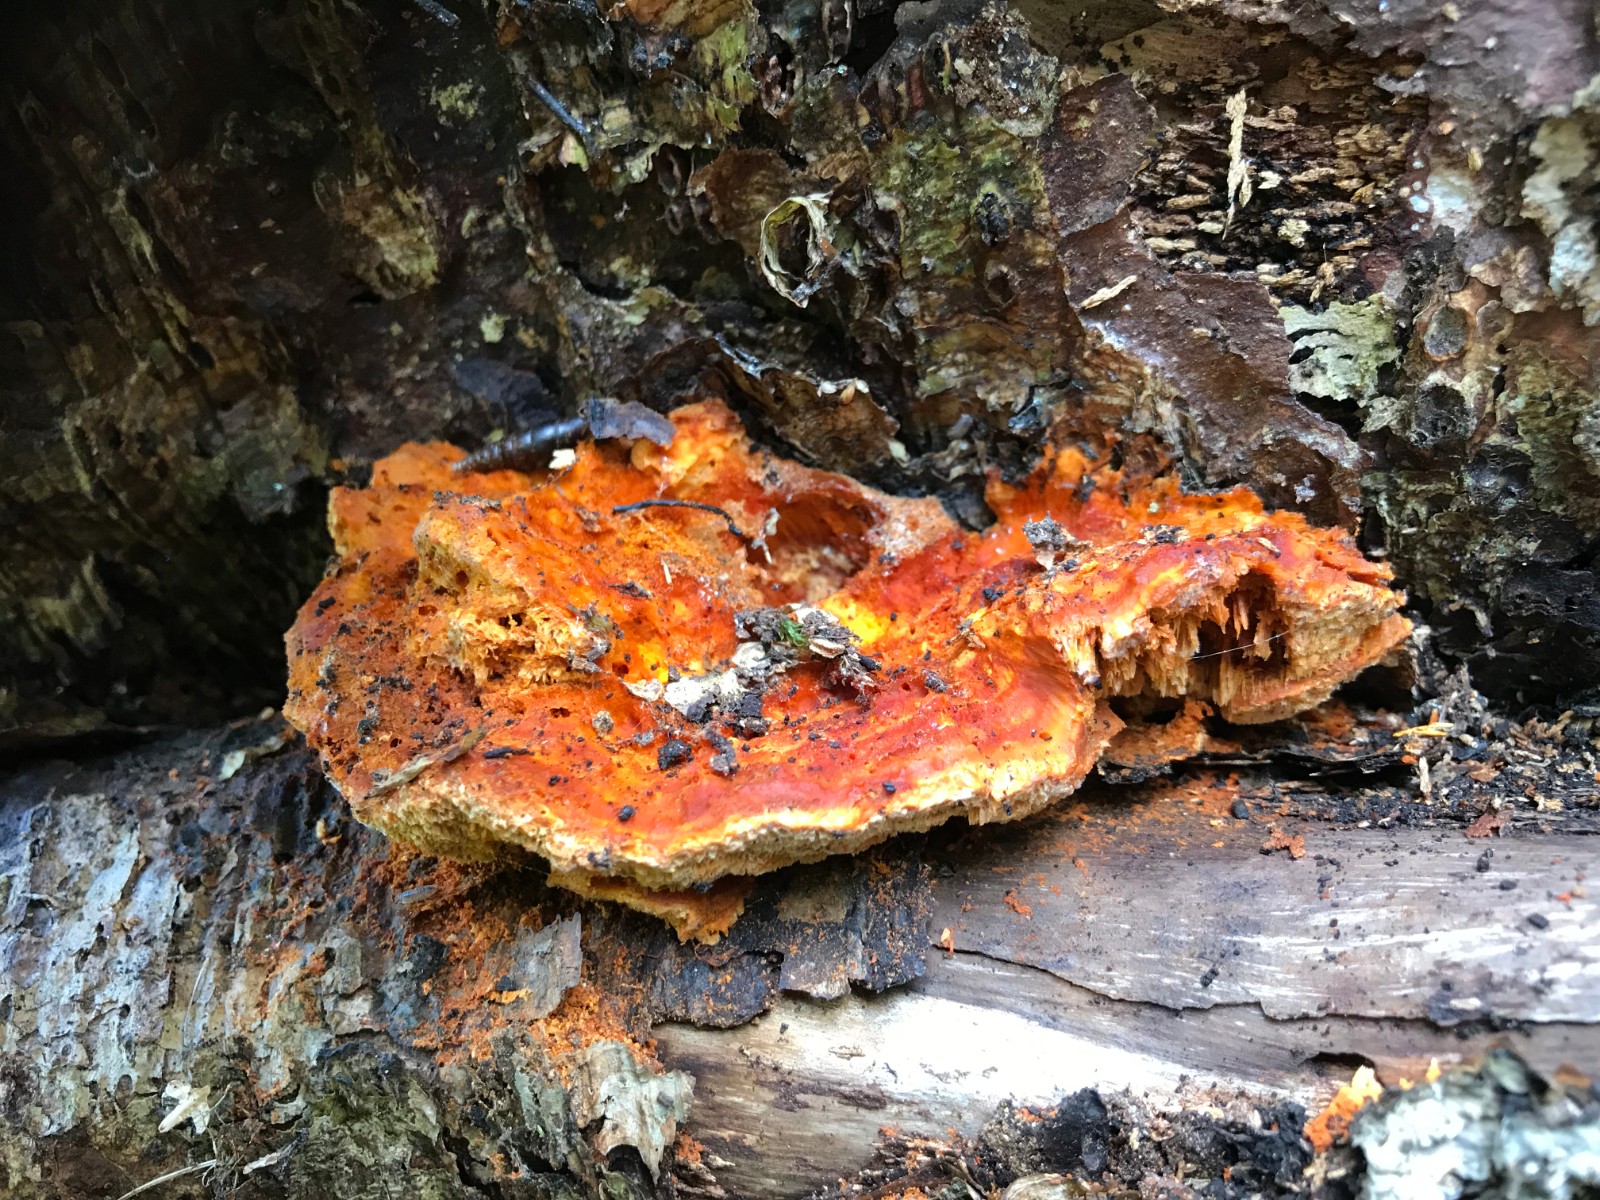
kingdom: Fungi
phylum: Basidiomycota
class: Agaricomycetes
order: Polyporales
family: Pycnoporellaceae
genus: Pycnoporellus
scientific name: Pycnoporellus fulgens
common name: flammeporesvamp
